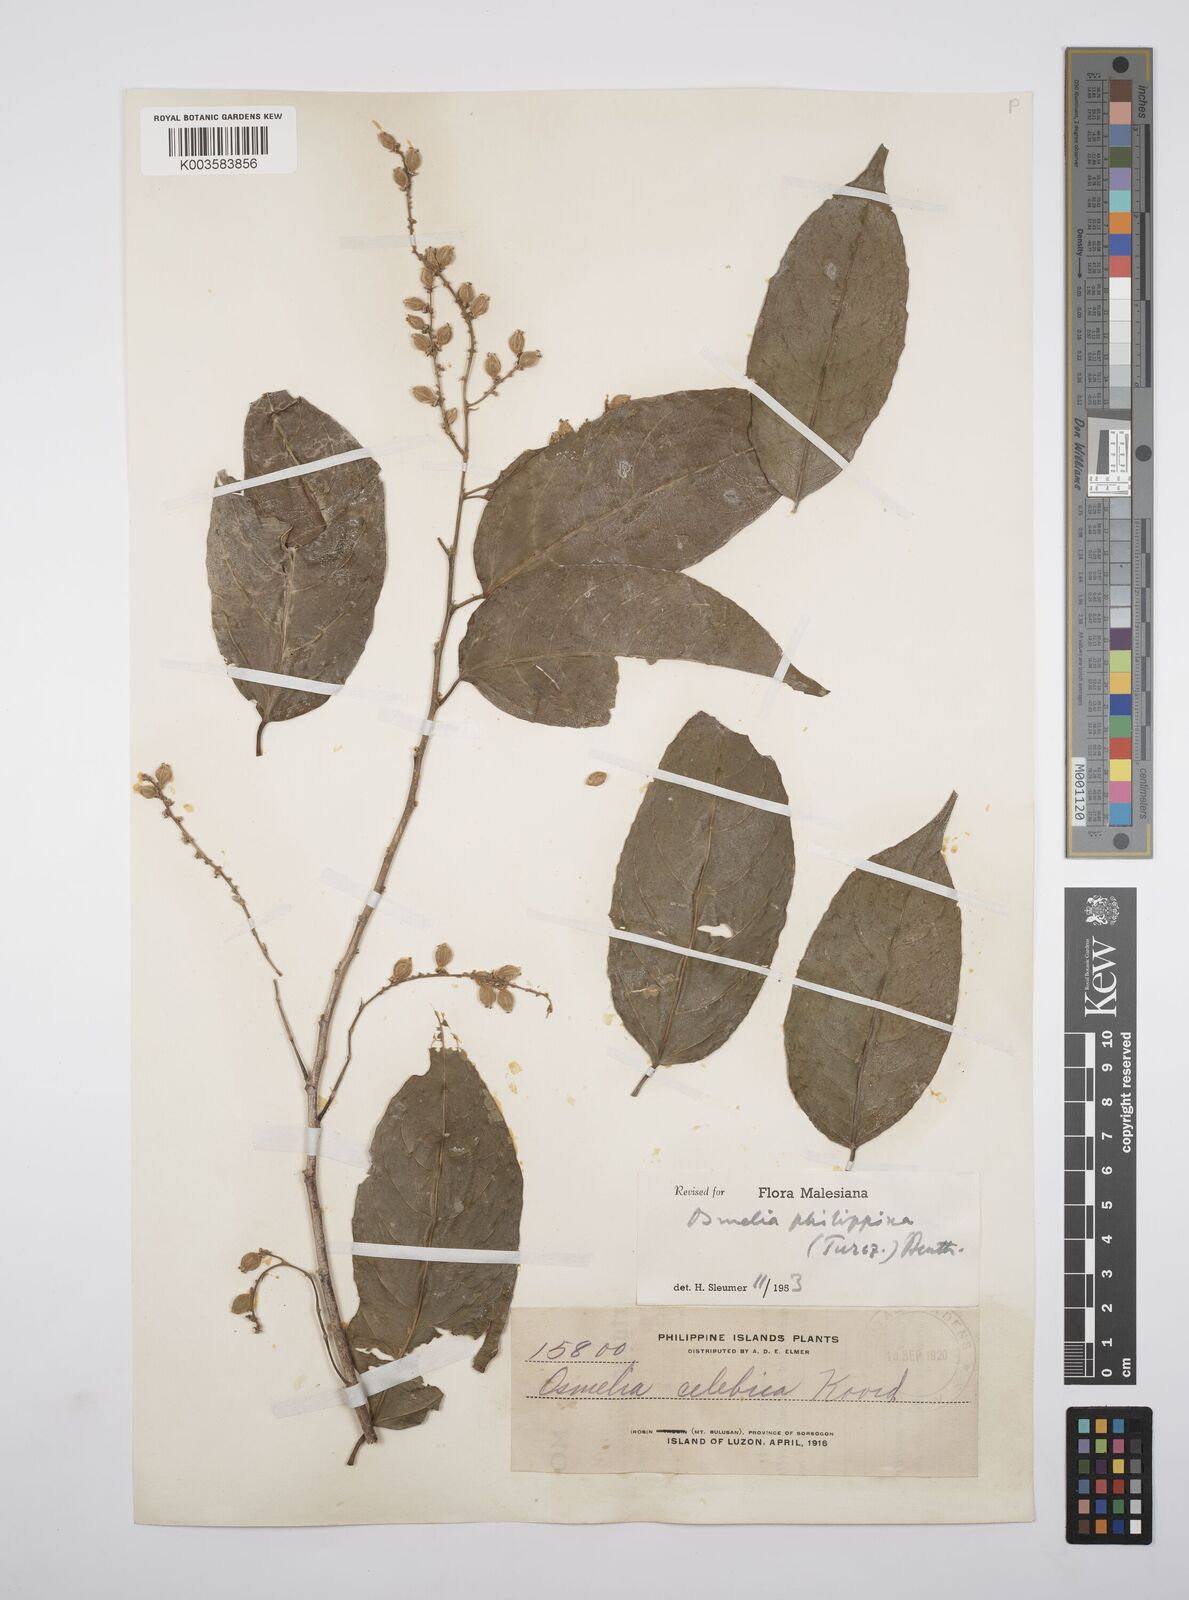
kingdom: Plantae
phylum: Tracheophyta
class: Magnoliopsida
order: Malpighiales
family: Salicaceae
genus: Osmelia
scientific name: Osmelia philippina
